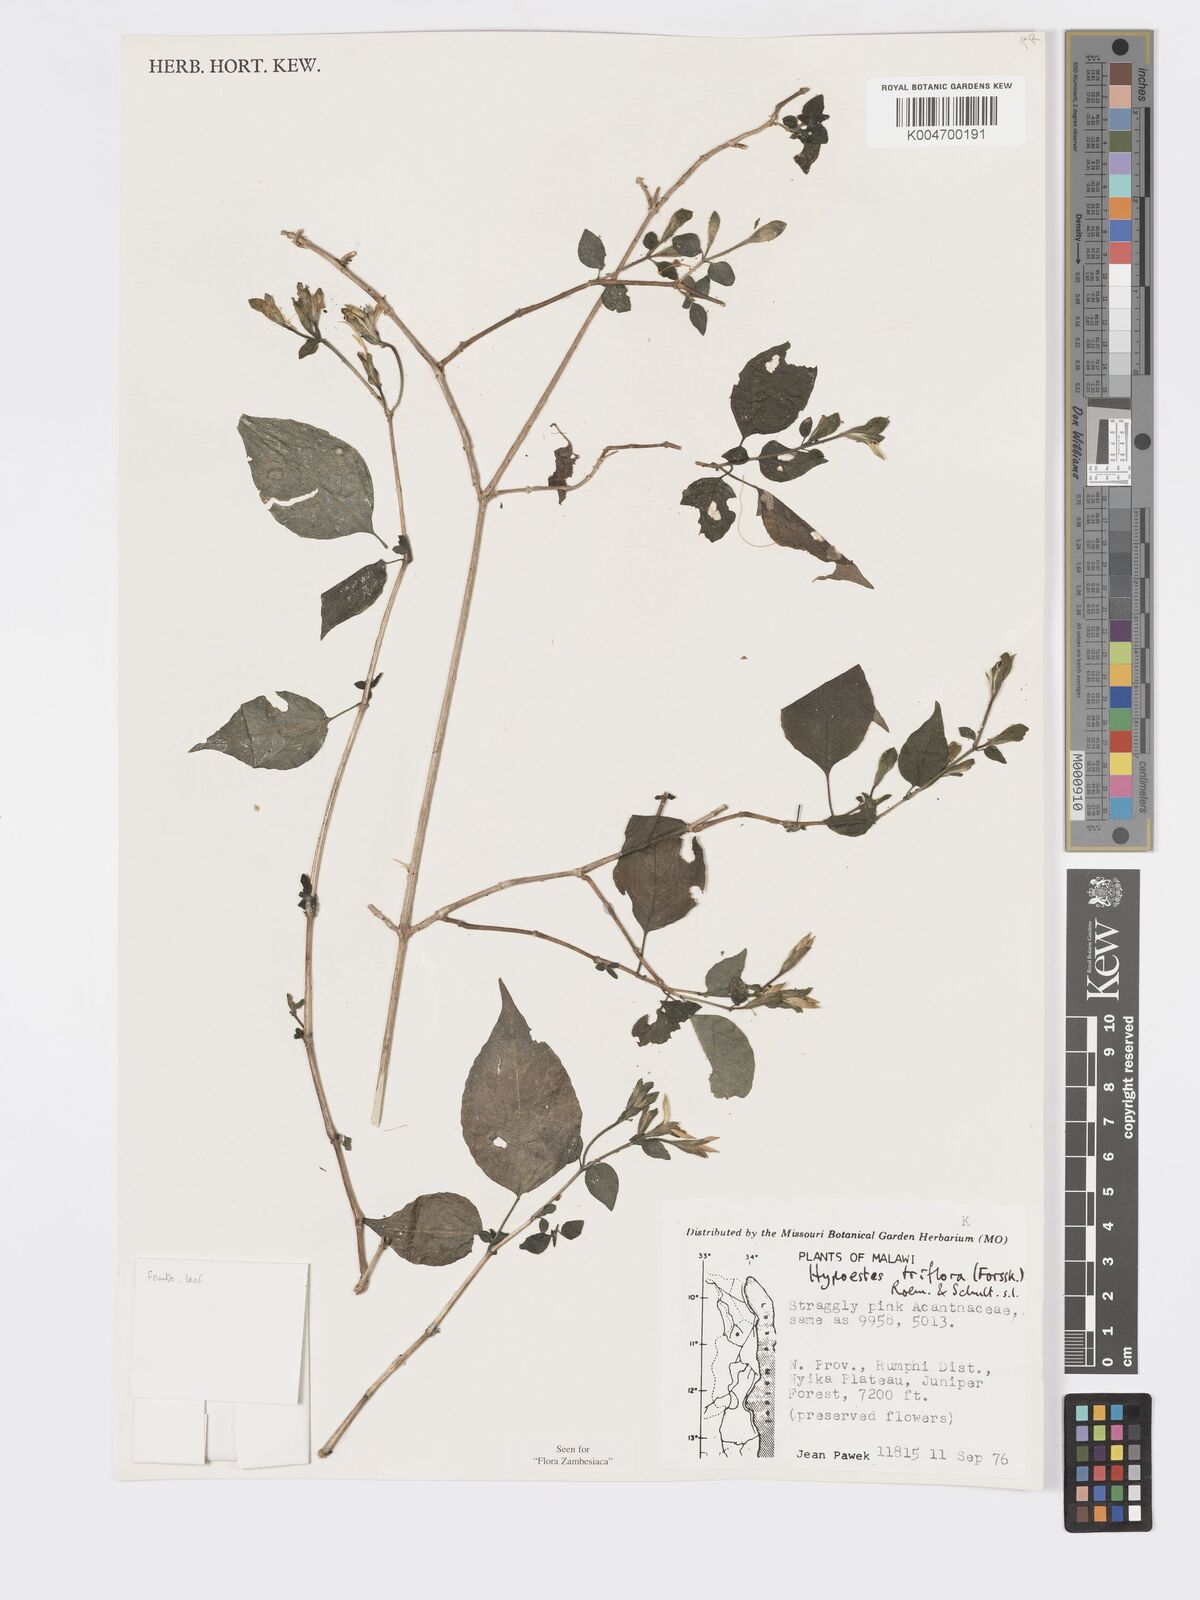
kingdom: Plantae
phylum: Tracheophyta
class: Magnoliopsida
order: Lamiales
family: Acanthaceae
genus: Hypoestes
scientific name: Hypoestes triflora
